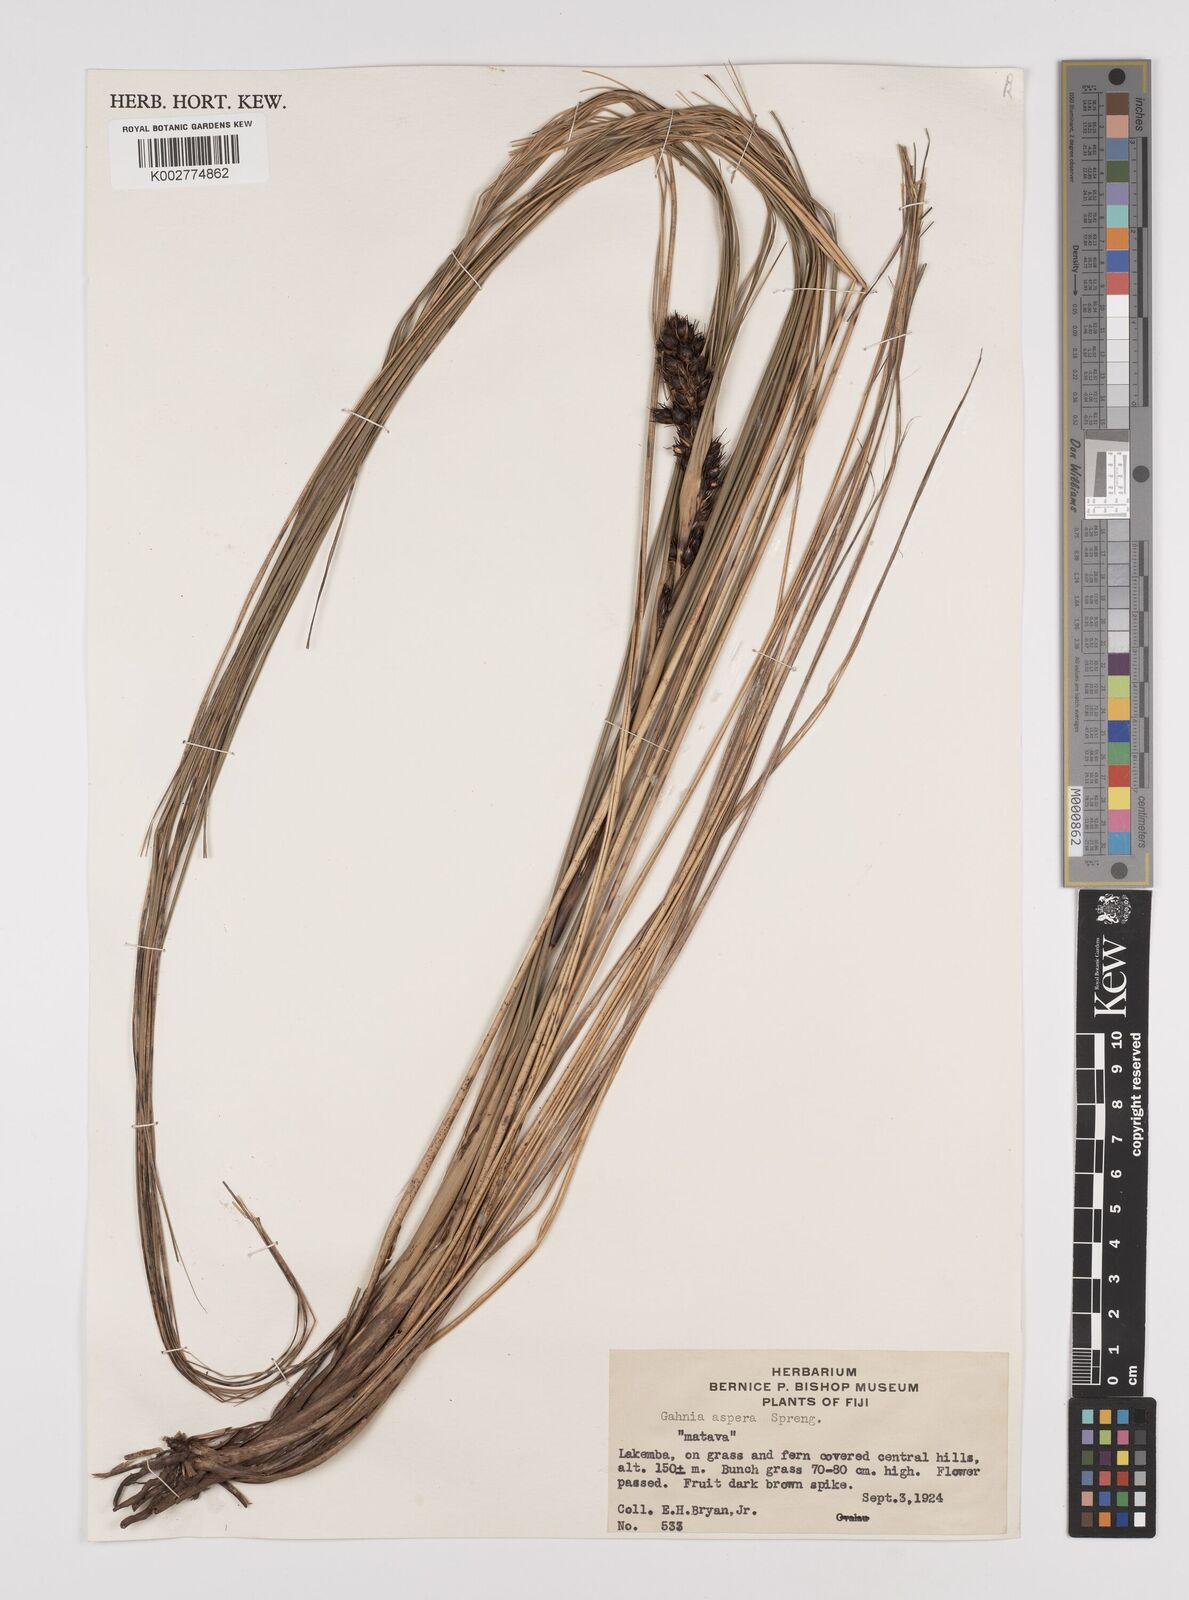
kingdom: Plantae
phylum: Tracheophyta
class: Liliopsida
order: Poales
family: Cyperaceae
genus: Gahnia
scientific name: Gahnia aspera
